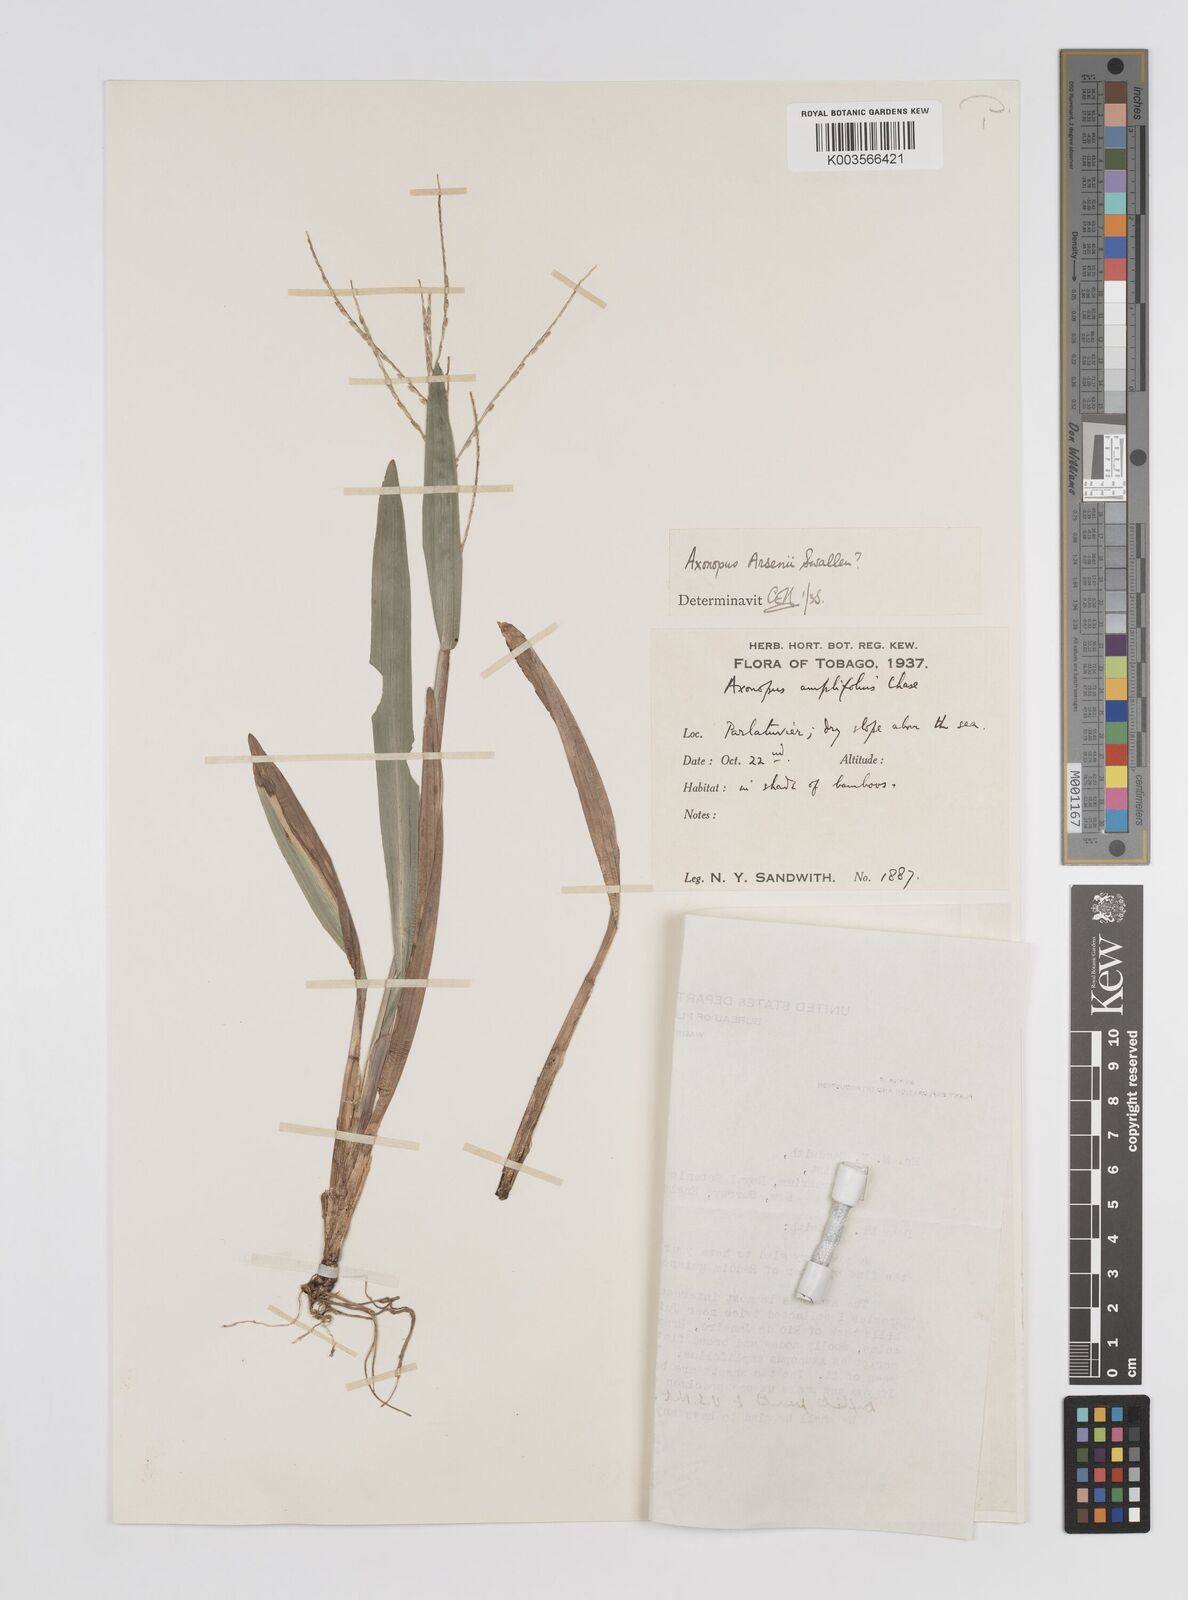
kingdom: Plantae
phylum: Tracheophyta
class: Liliopsida
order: Poales
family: Poaceae
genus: Axonopus
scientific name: Axonopus compressus
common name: American carpet grass
